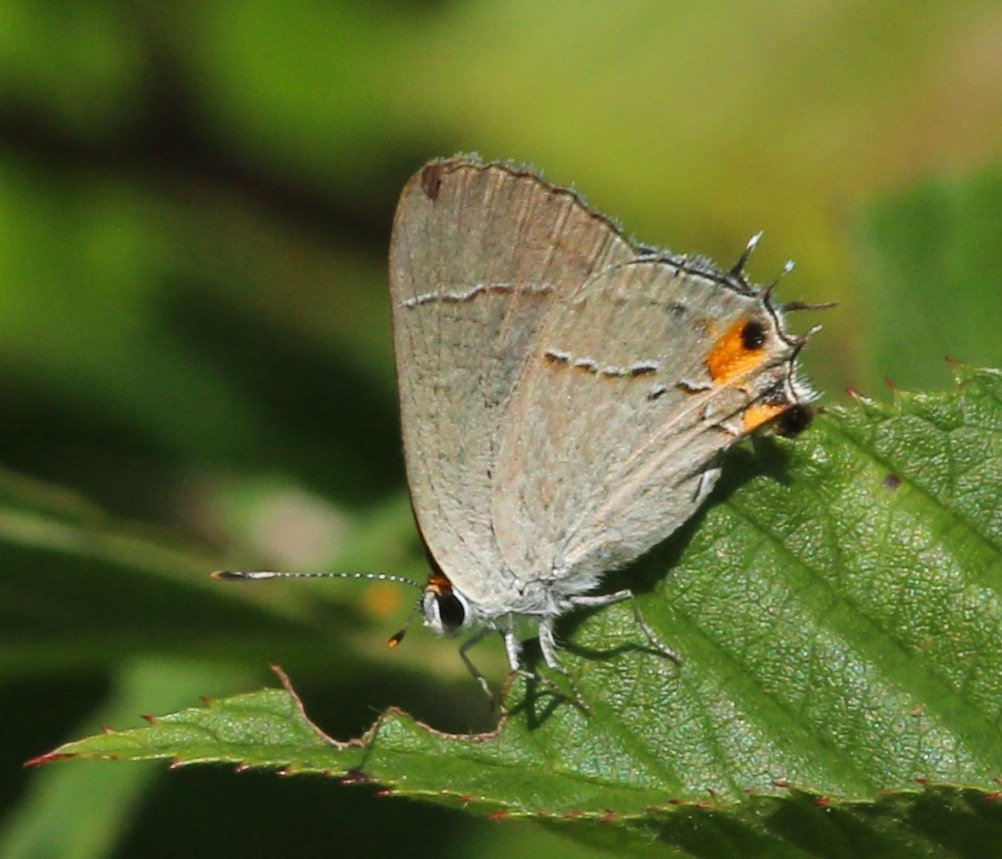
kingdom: Animalia
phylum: Arthropoda
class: Insecta
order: Lepidoptera
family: Lycaenidae
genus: Strymon
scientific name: Strymon melinus
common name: Gray Hairstreak
